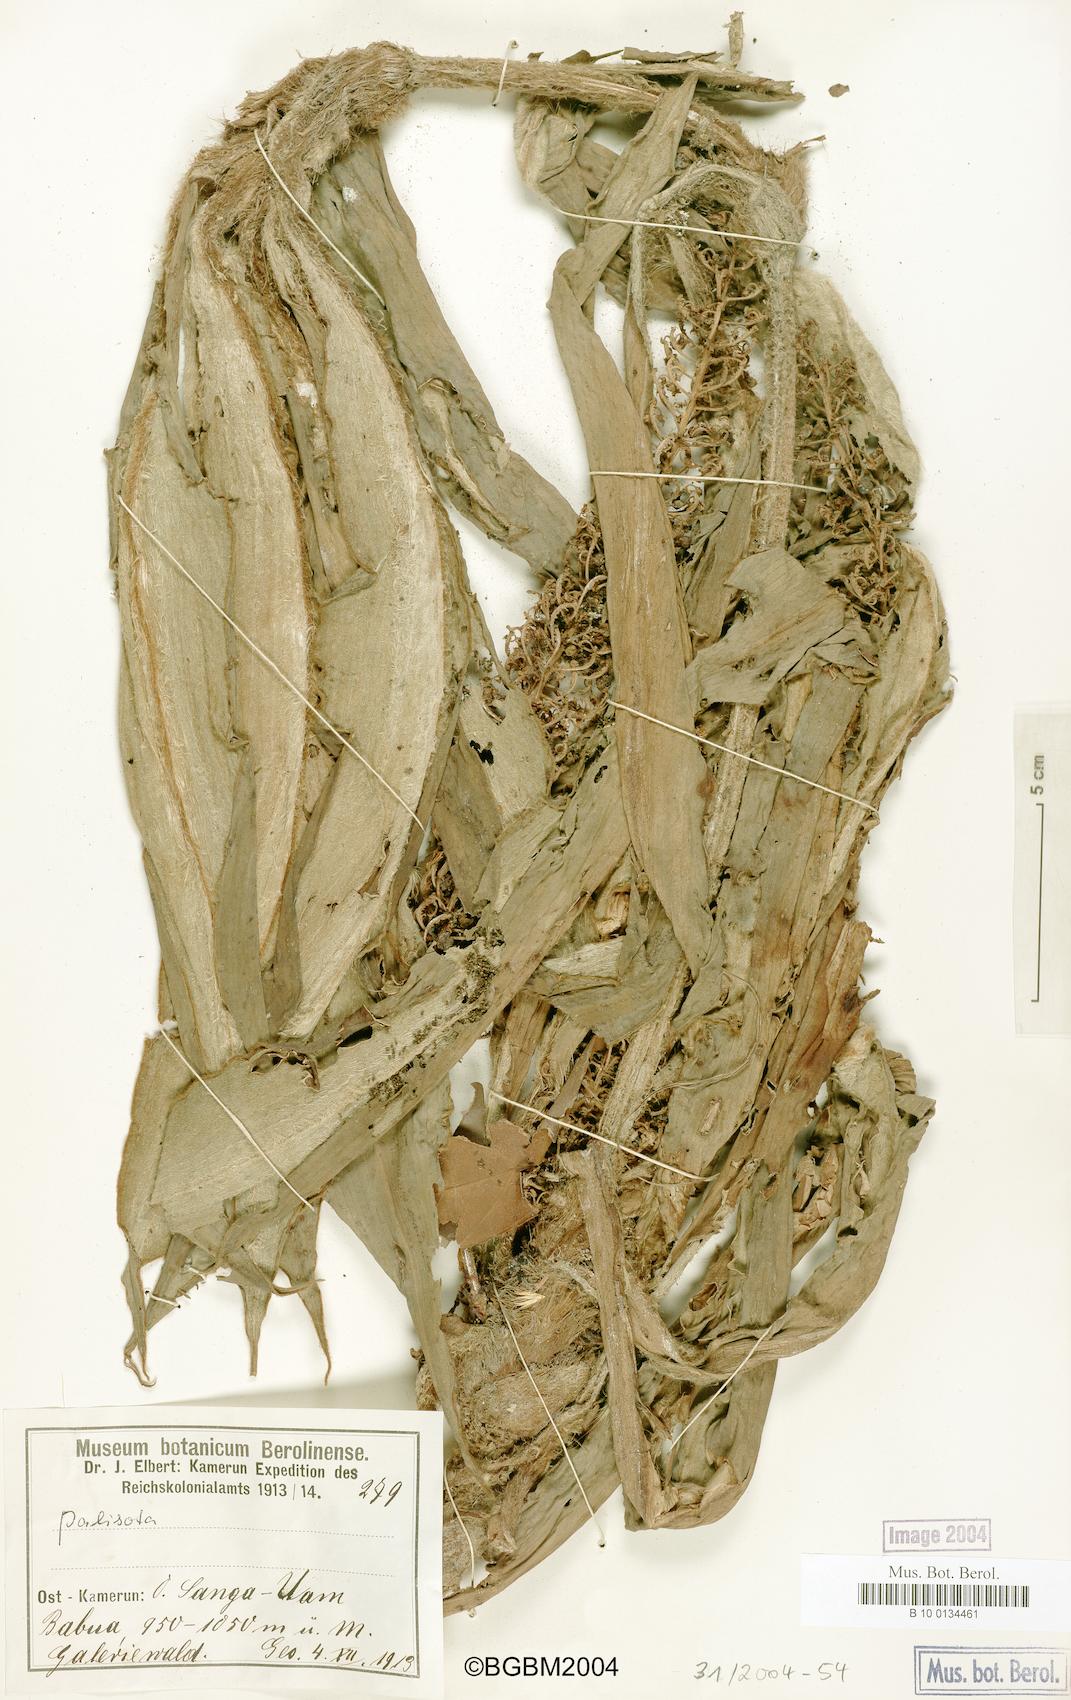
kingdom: Plantae
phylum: Tracheophyta
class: Liliopsida
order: Commelinales
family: Commelinaceae
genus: Palisota
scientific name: Palisota hirsuta
